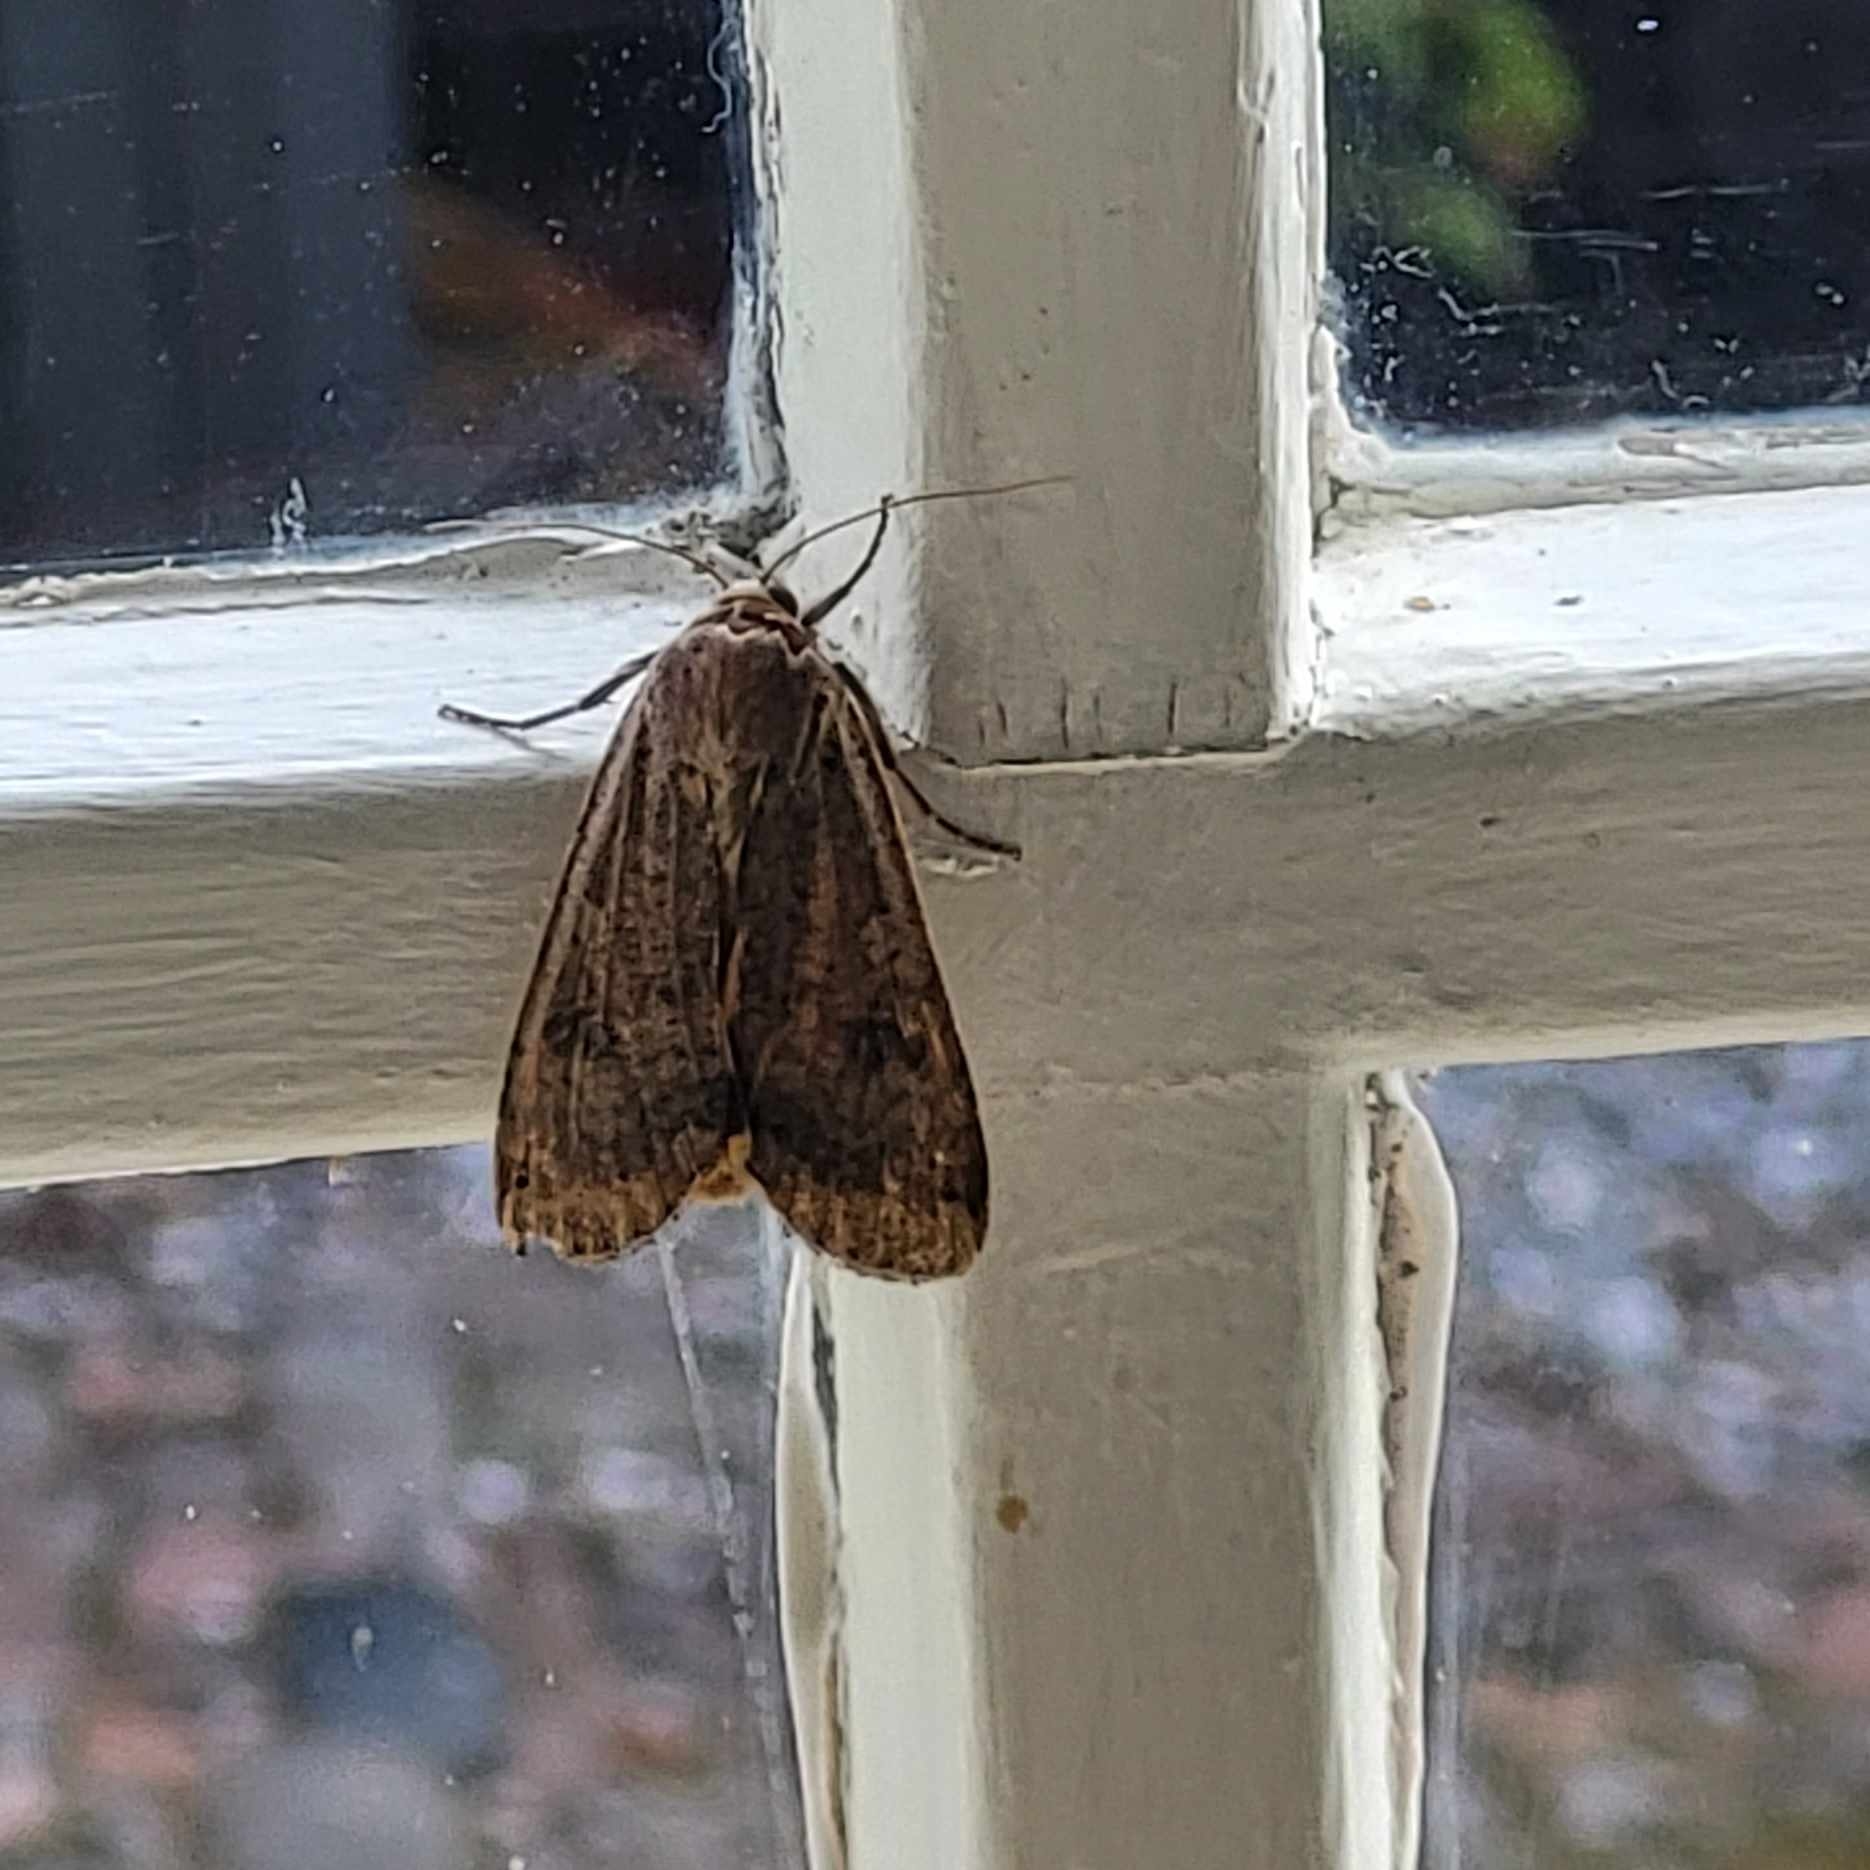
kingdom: Animalia
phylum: Arthropoda
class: Insecta
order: Lepidoptera
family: Noctuidae
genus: Noctua
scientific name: Noctua pronuba
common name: Stor smutugle
